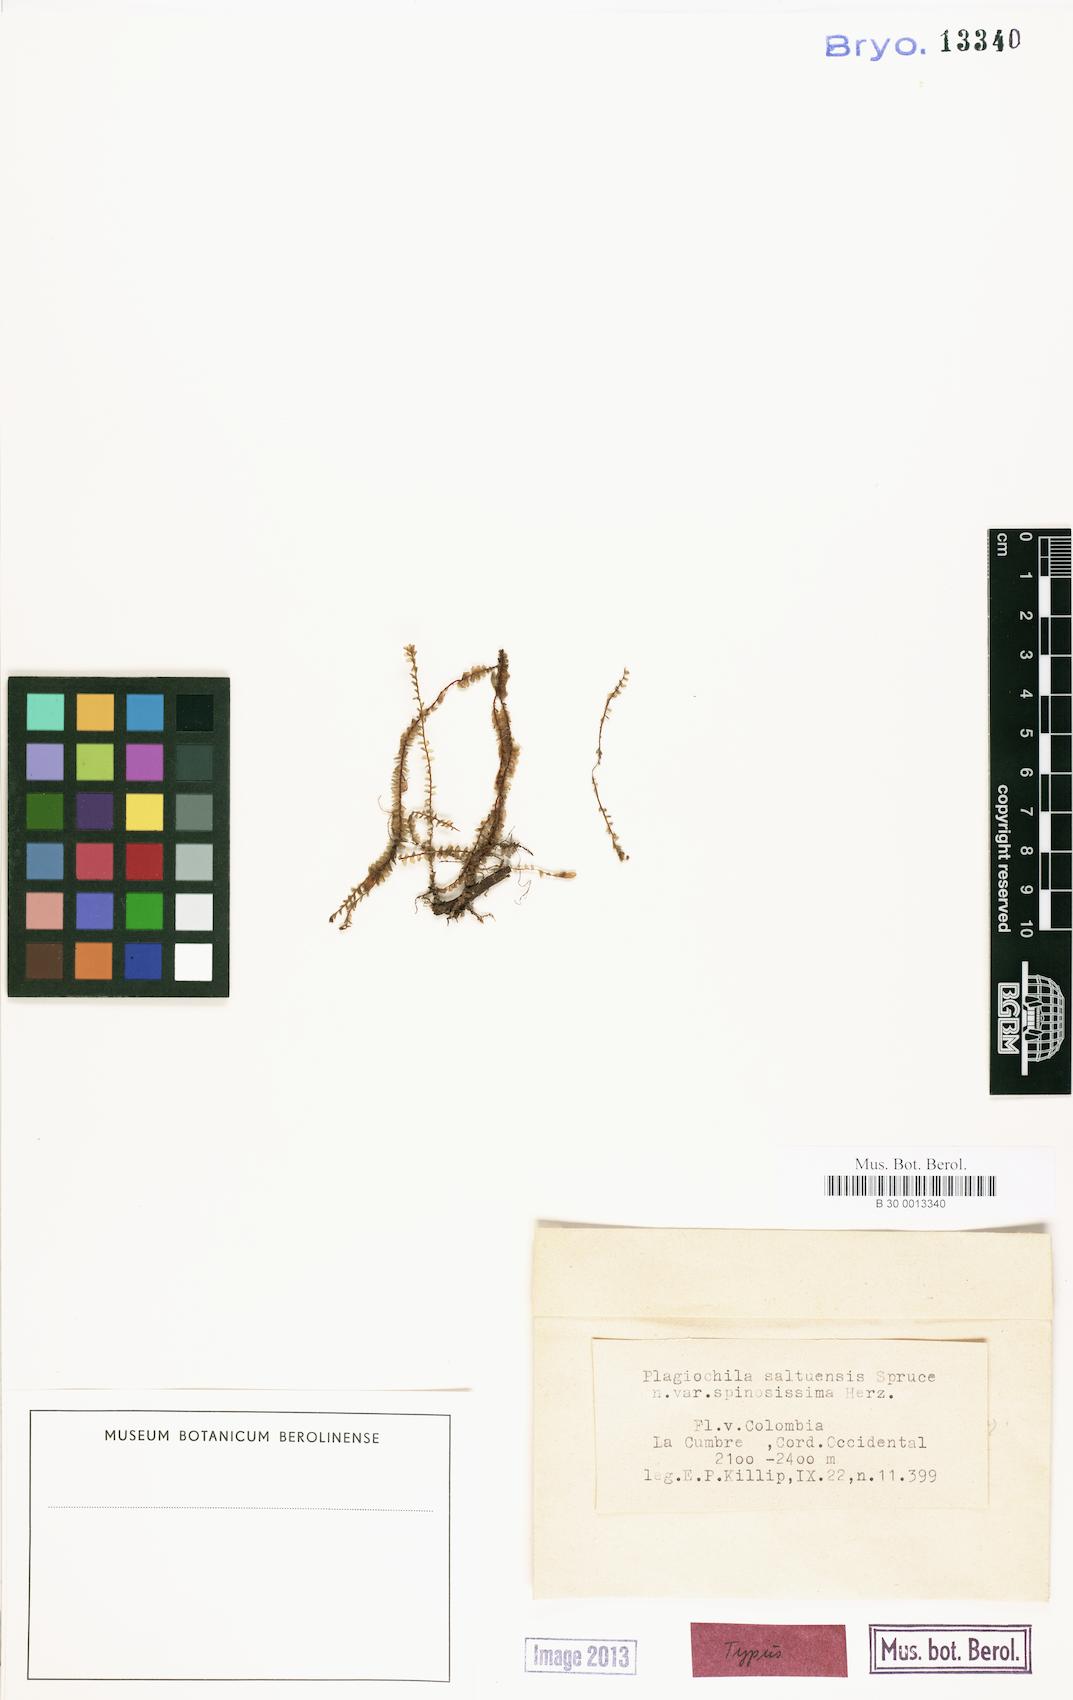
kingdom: Plantae
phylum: Marchantiophyta
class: Jungermanniopsida
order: Jungermanniales
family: Plagiochilaceae
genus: Plagiochila
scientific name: Plagiochila trichostoma
